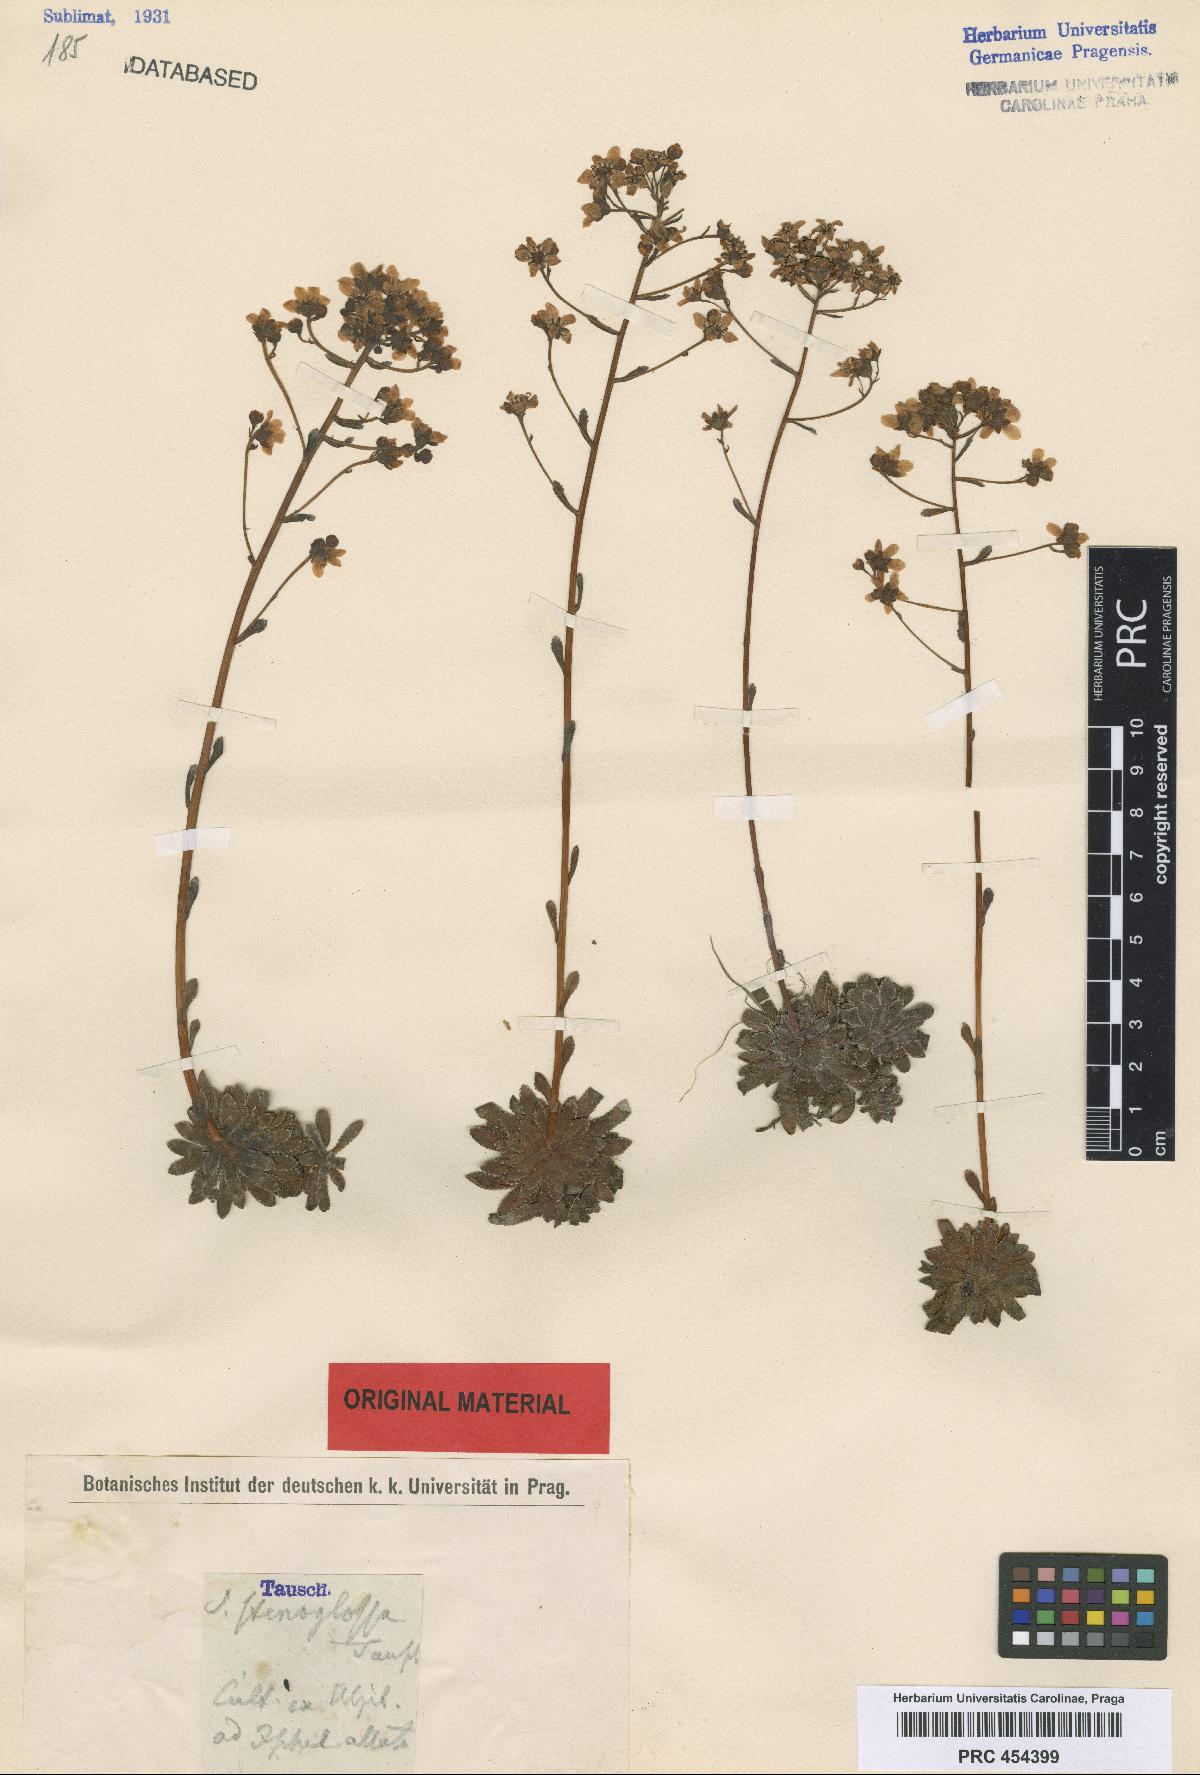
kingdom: Plantae
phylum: Tracheophyta
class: Magnoliopsida
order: Saxifragales
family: Saxifragaceae
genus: Saxifraga
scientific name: Saxifraga paniculata
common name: Livelong saxifrage
